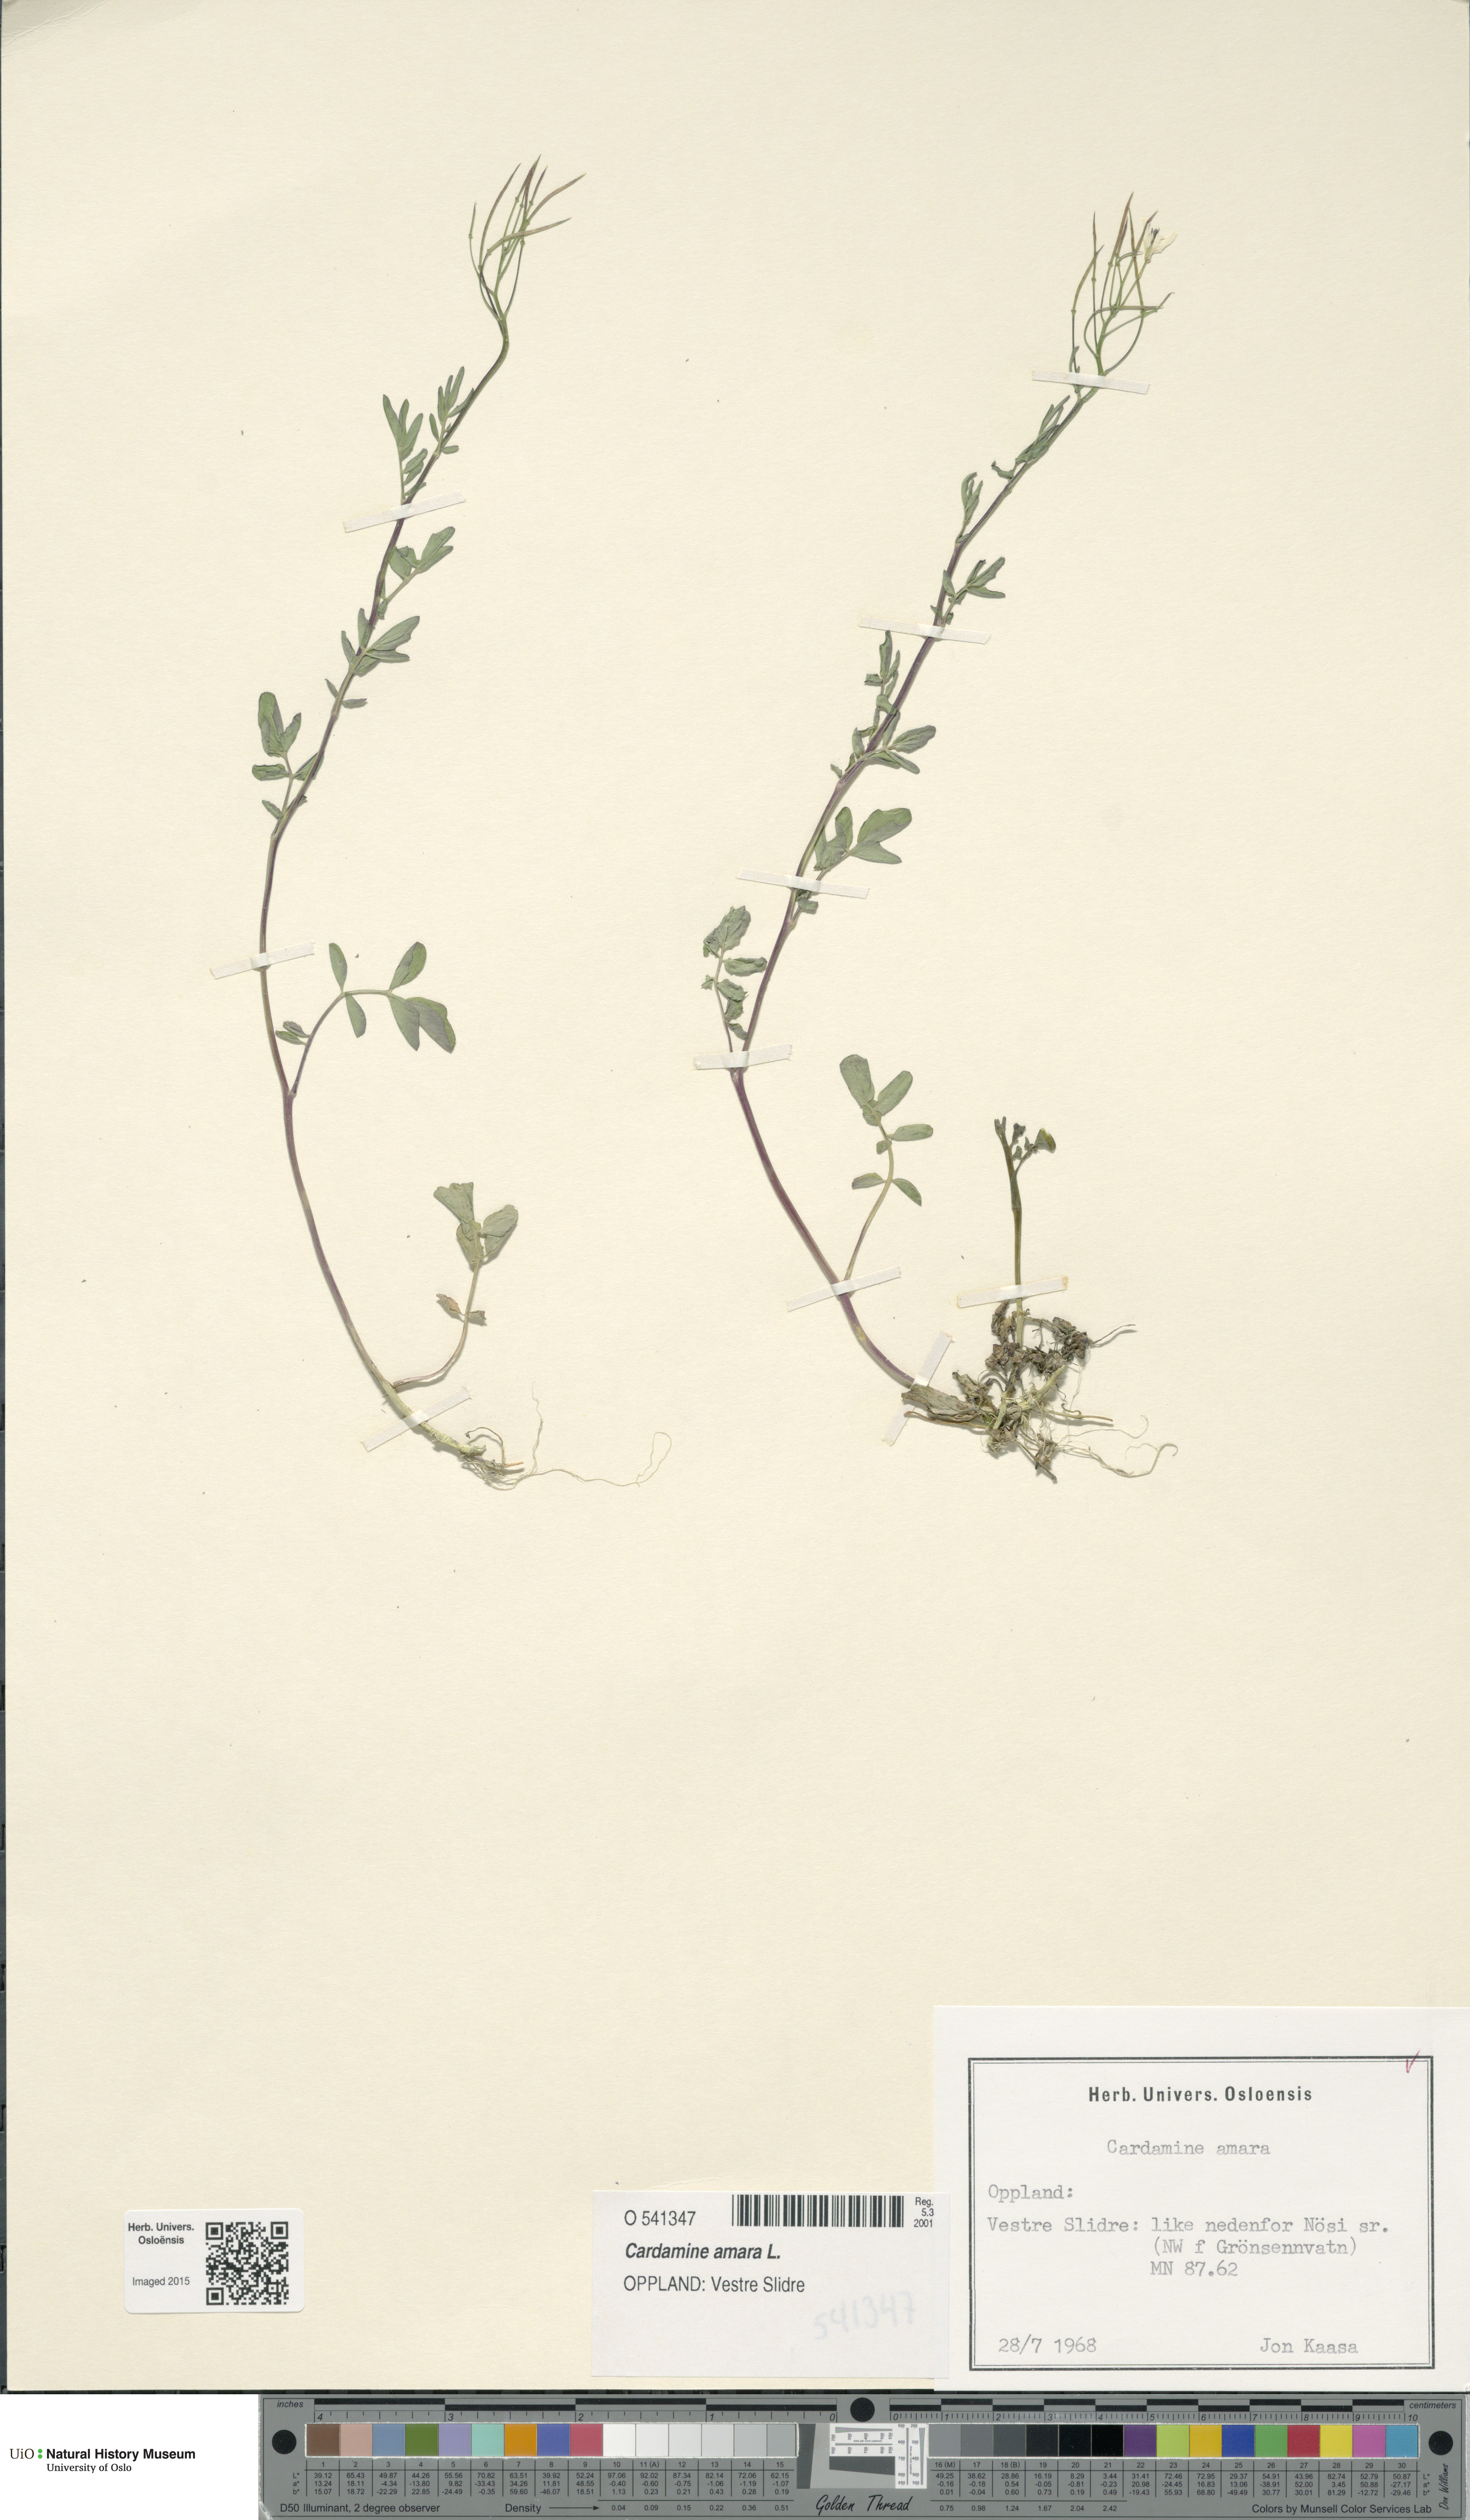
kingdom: Plantae
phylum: Tracheophyta
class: Magnoliopsida
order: Brassicales
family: Brassicaceae
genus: Cardamine
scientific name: Cardamine amara
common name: Large bitter-cress
